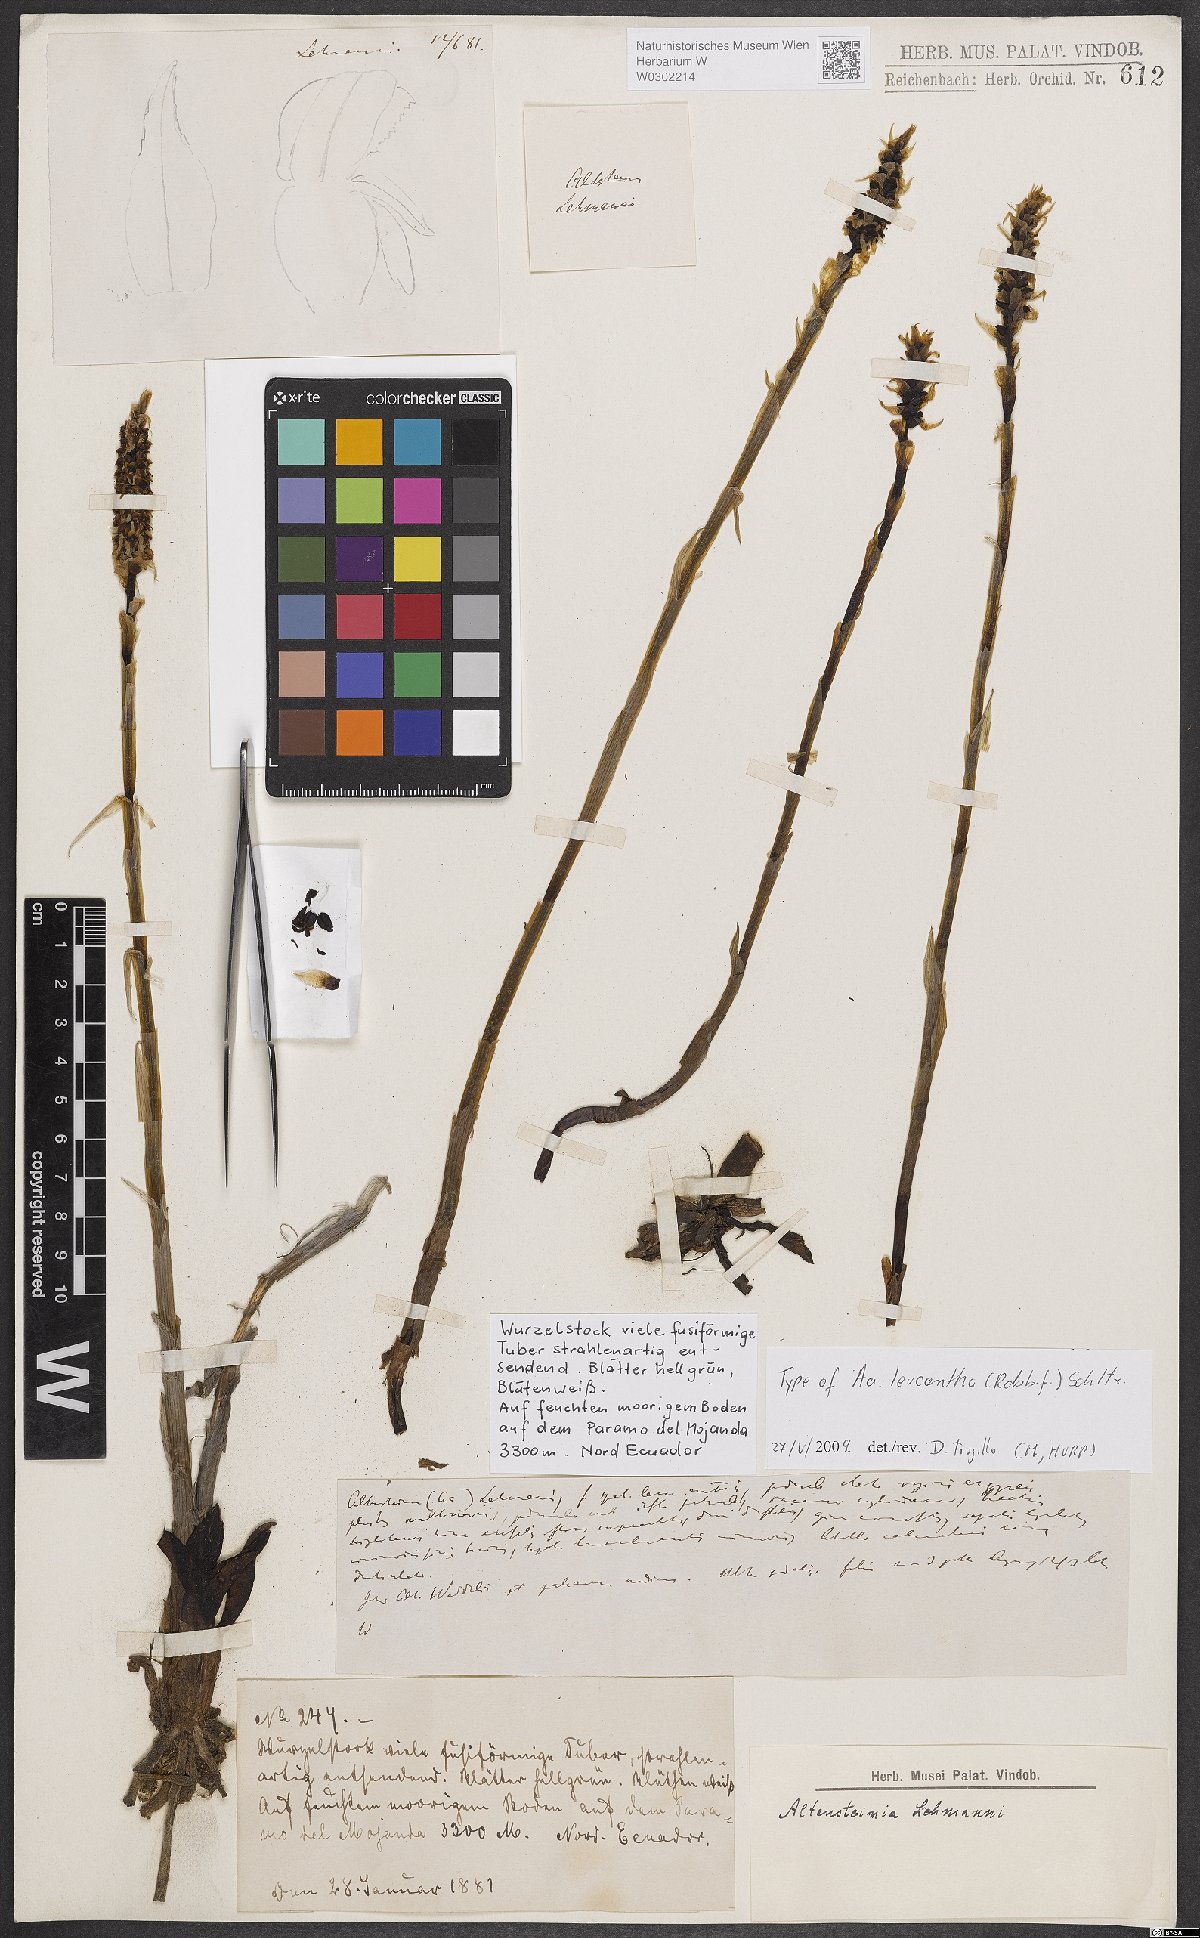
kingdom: Plantae
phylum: Tracheophyta
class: Liliopsida
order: Asparagales
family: Orchidaceae
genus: Aa
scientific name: Aa leucantha
